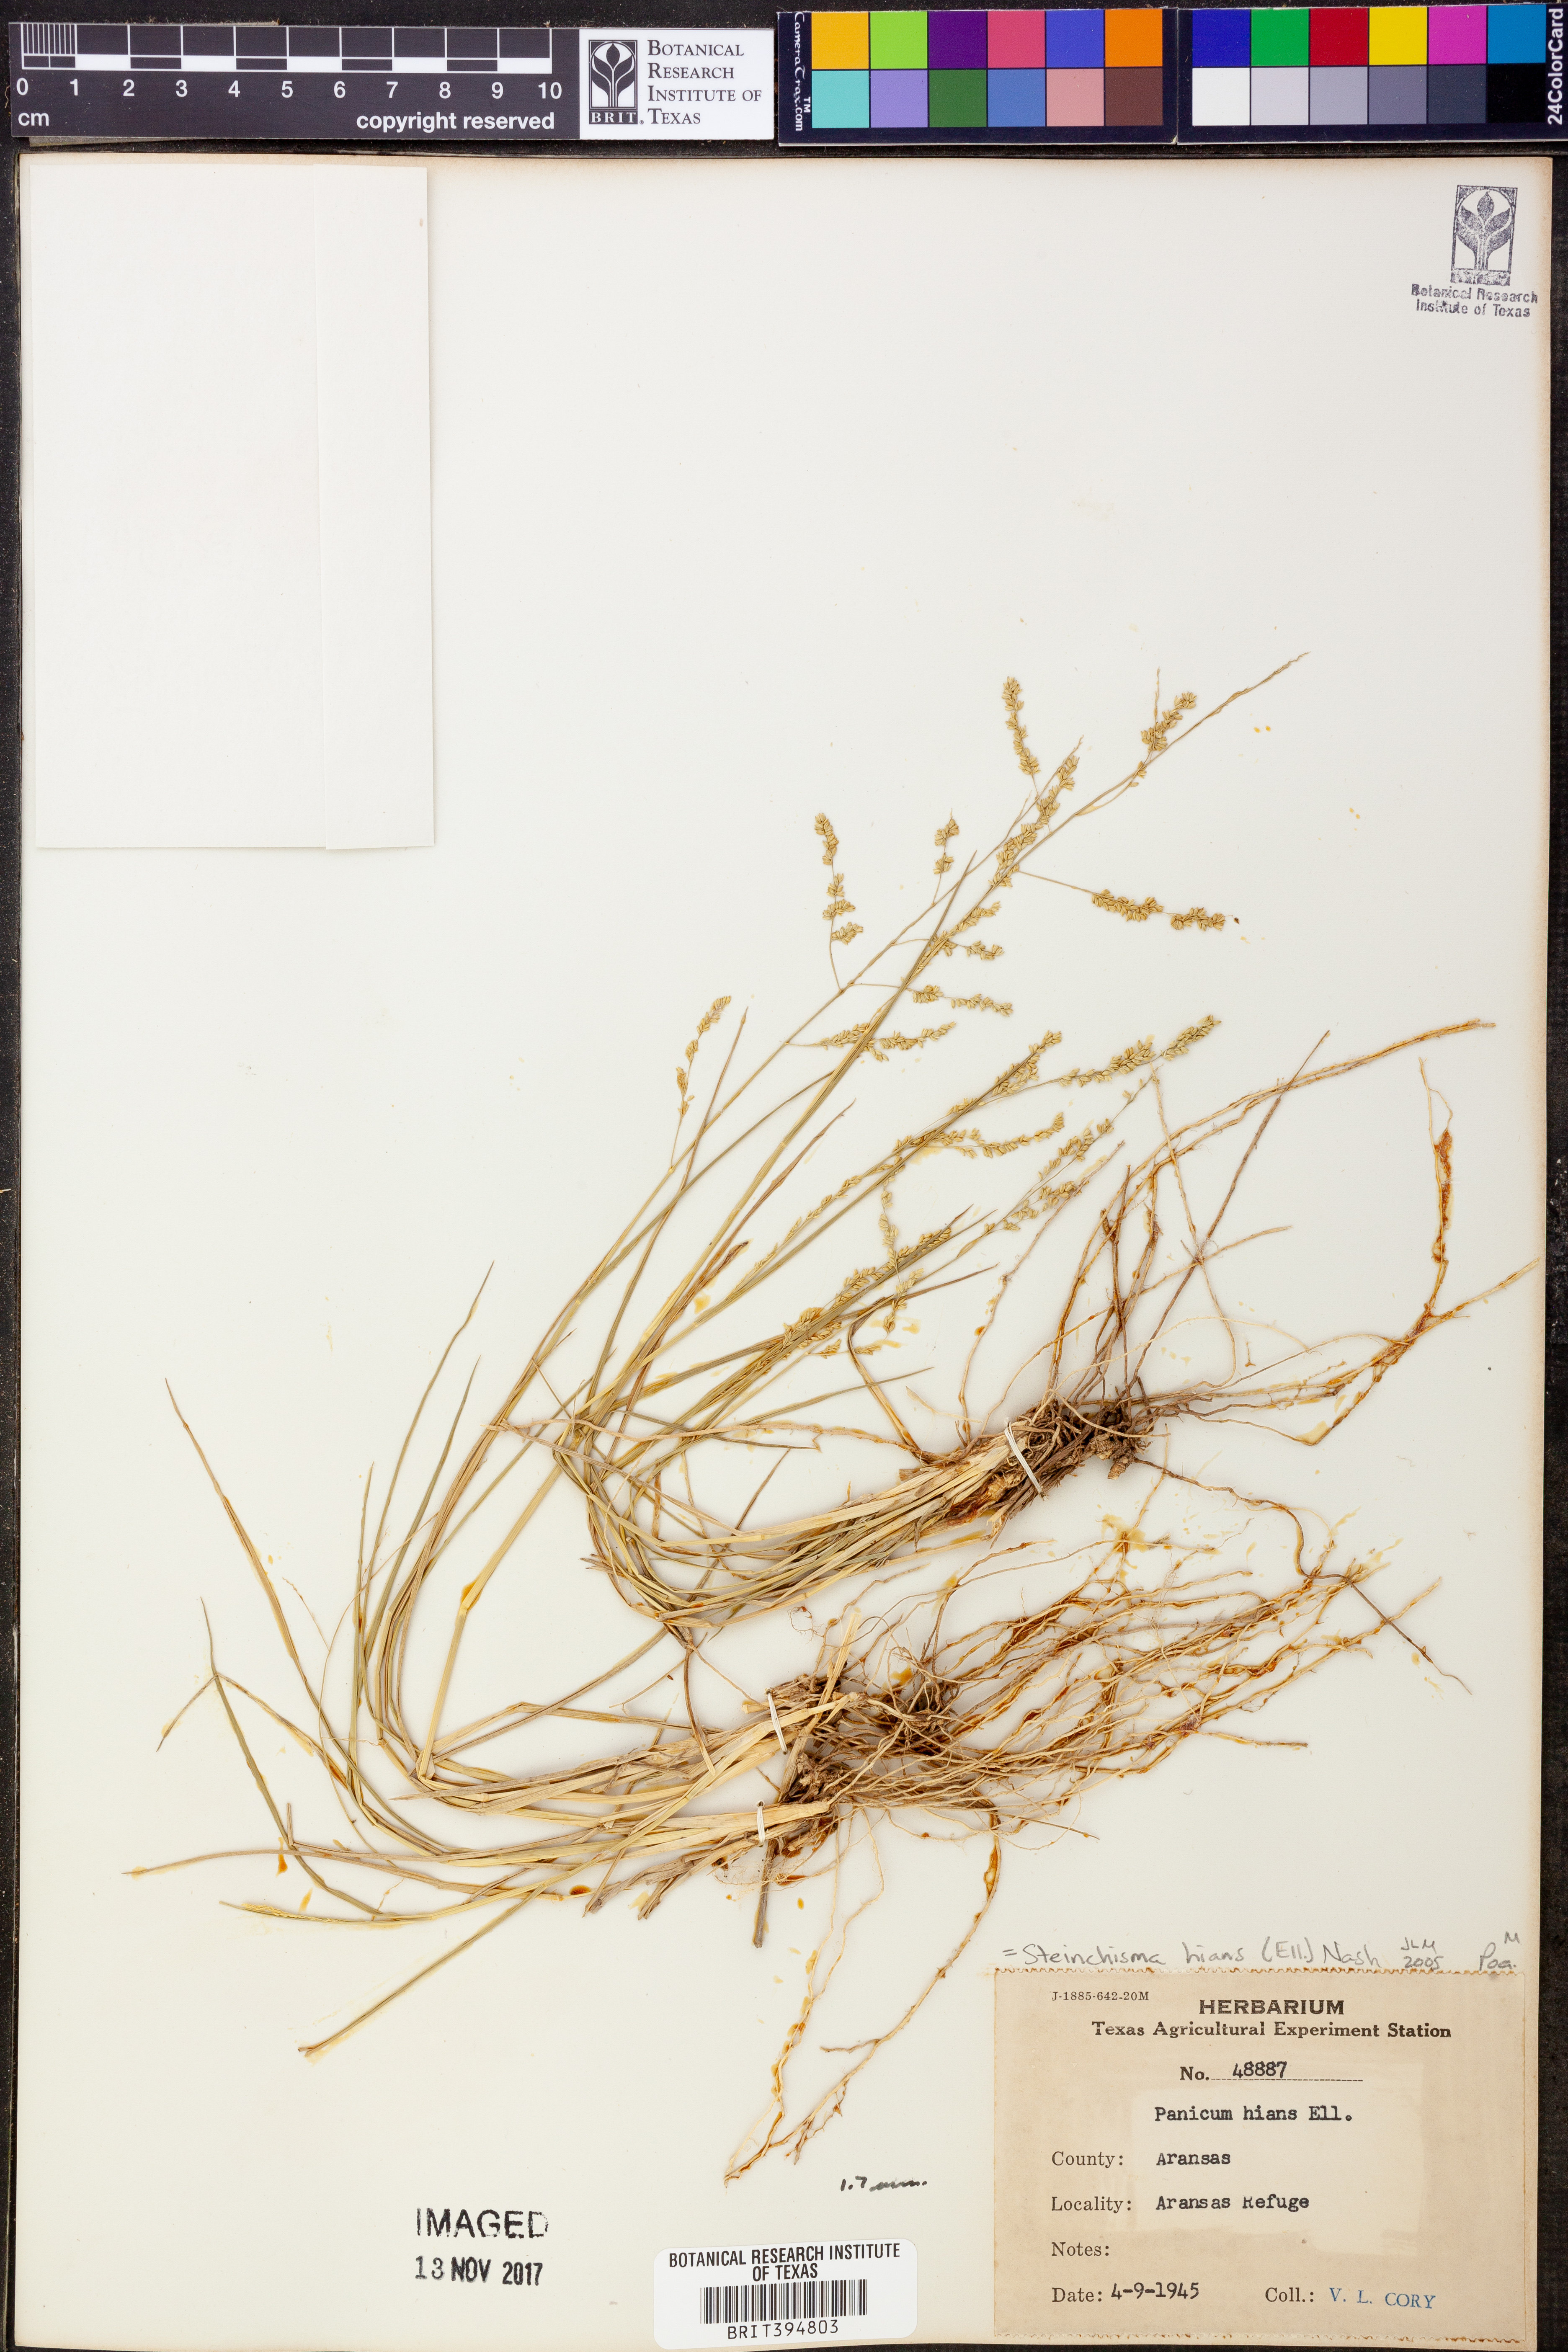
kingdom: Plantae
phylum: Tracheophyta
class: Liliopsida
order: Poales
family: Poaceae
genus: Steinchisma
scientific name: Steinchisma hians
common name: Gaping panic grass
